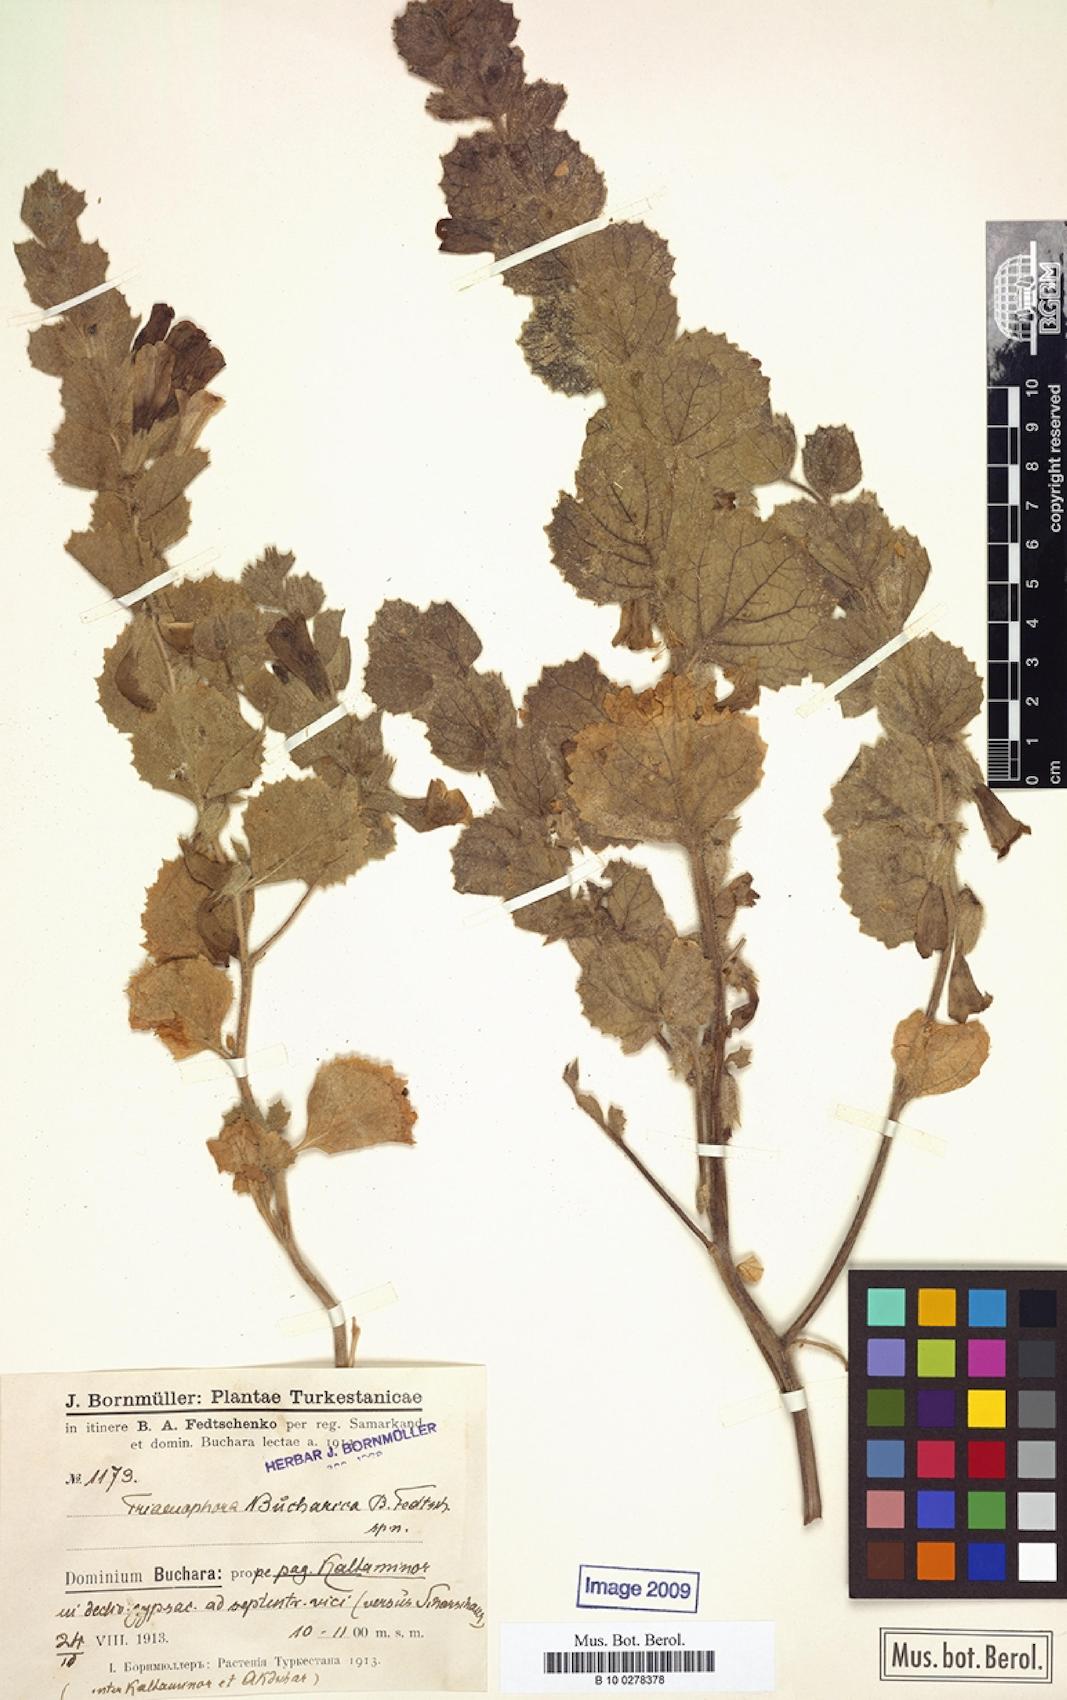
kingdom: Plantae
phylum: Tracheophyta
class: Magnoliopsida
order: Lamiales
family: Rehmanniaceae
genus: Triaenophora
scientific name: Triaenophora bucharica
